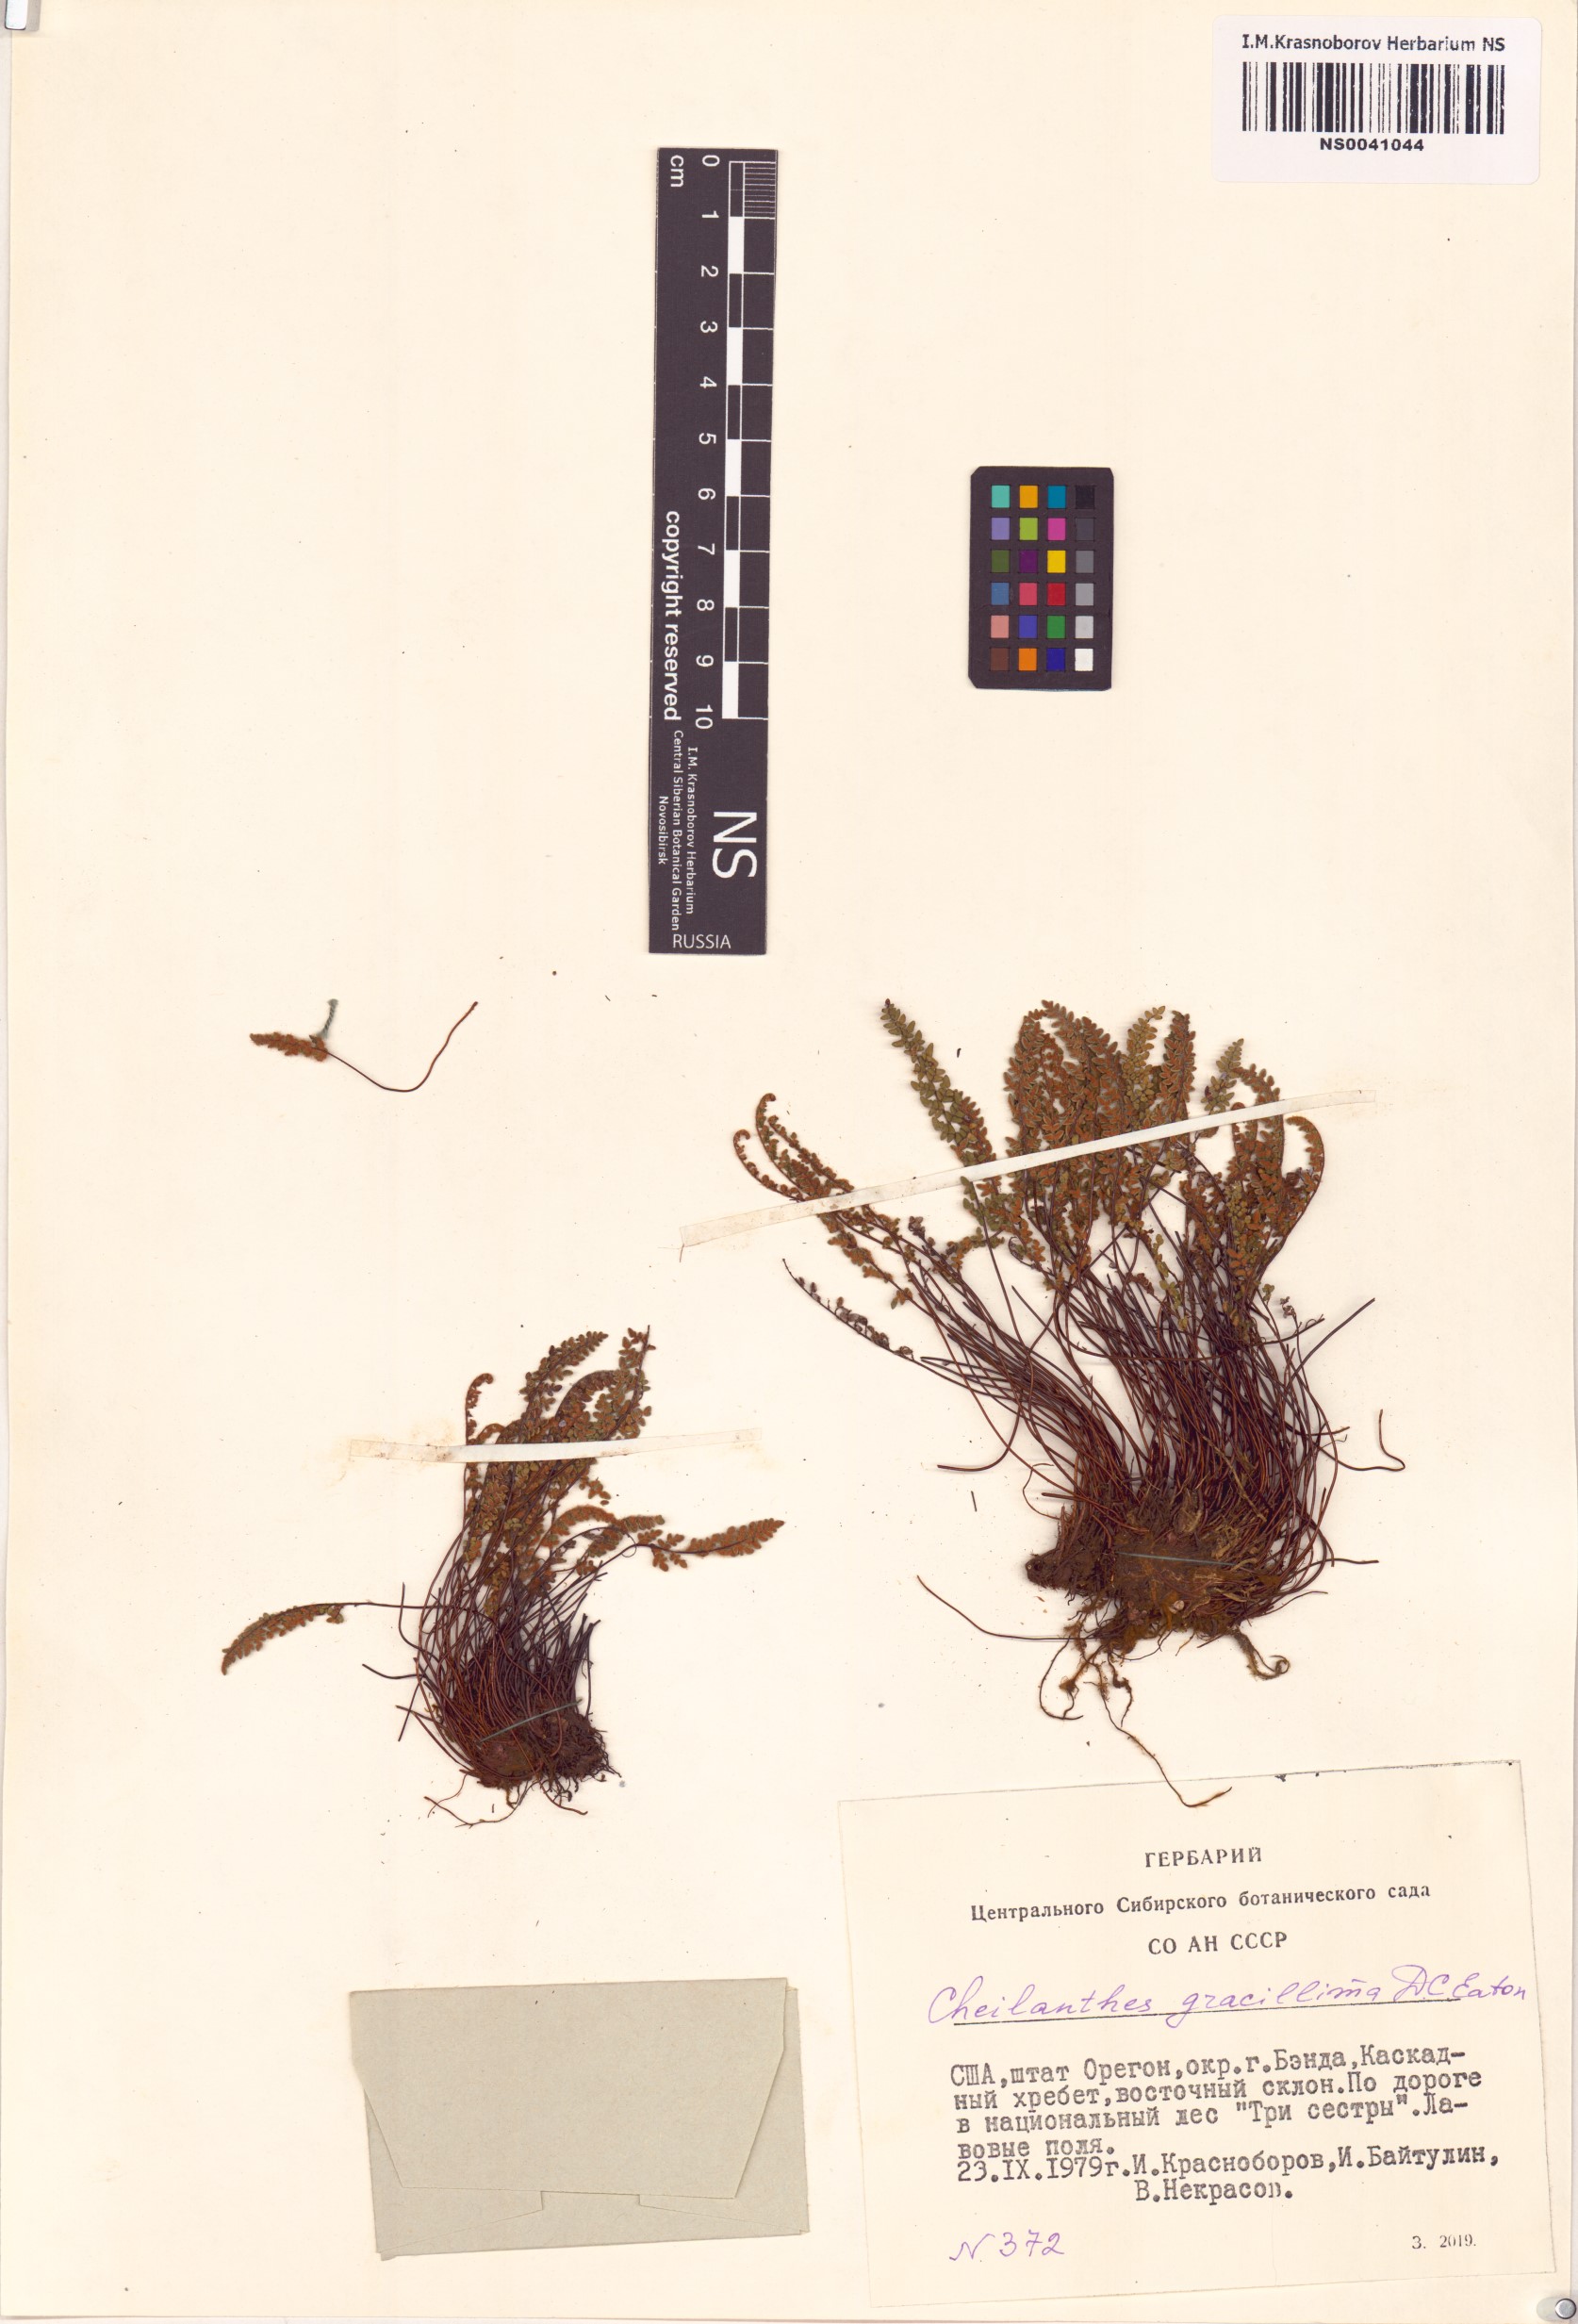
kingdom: Plantae
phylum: Tracheophyta
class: Polypodiopsida
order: Polypodiales
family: Pteridaceae
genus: Myriopteris
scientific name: Myriopteris gracillima
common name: Lace fern
